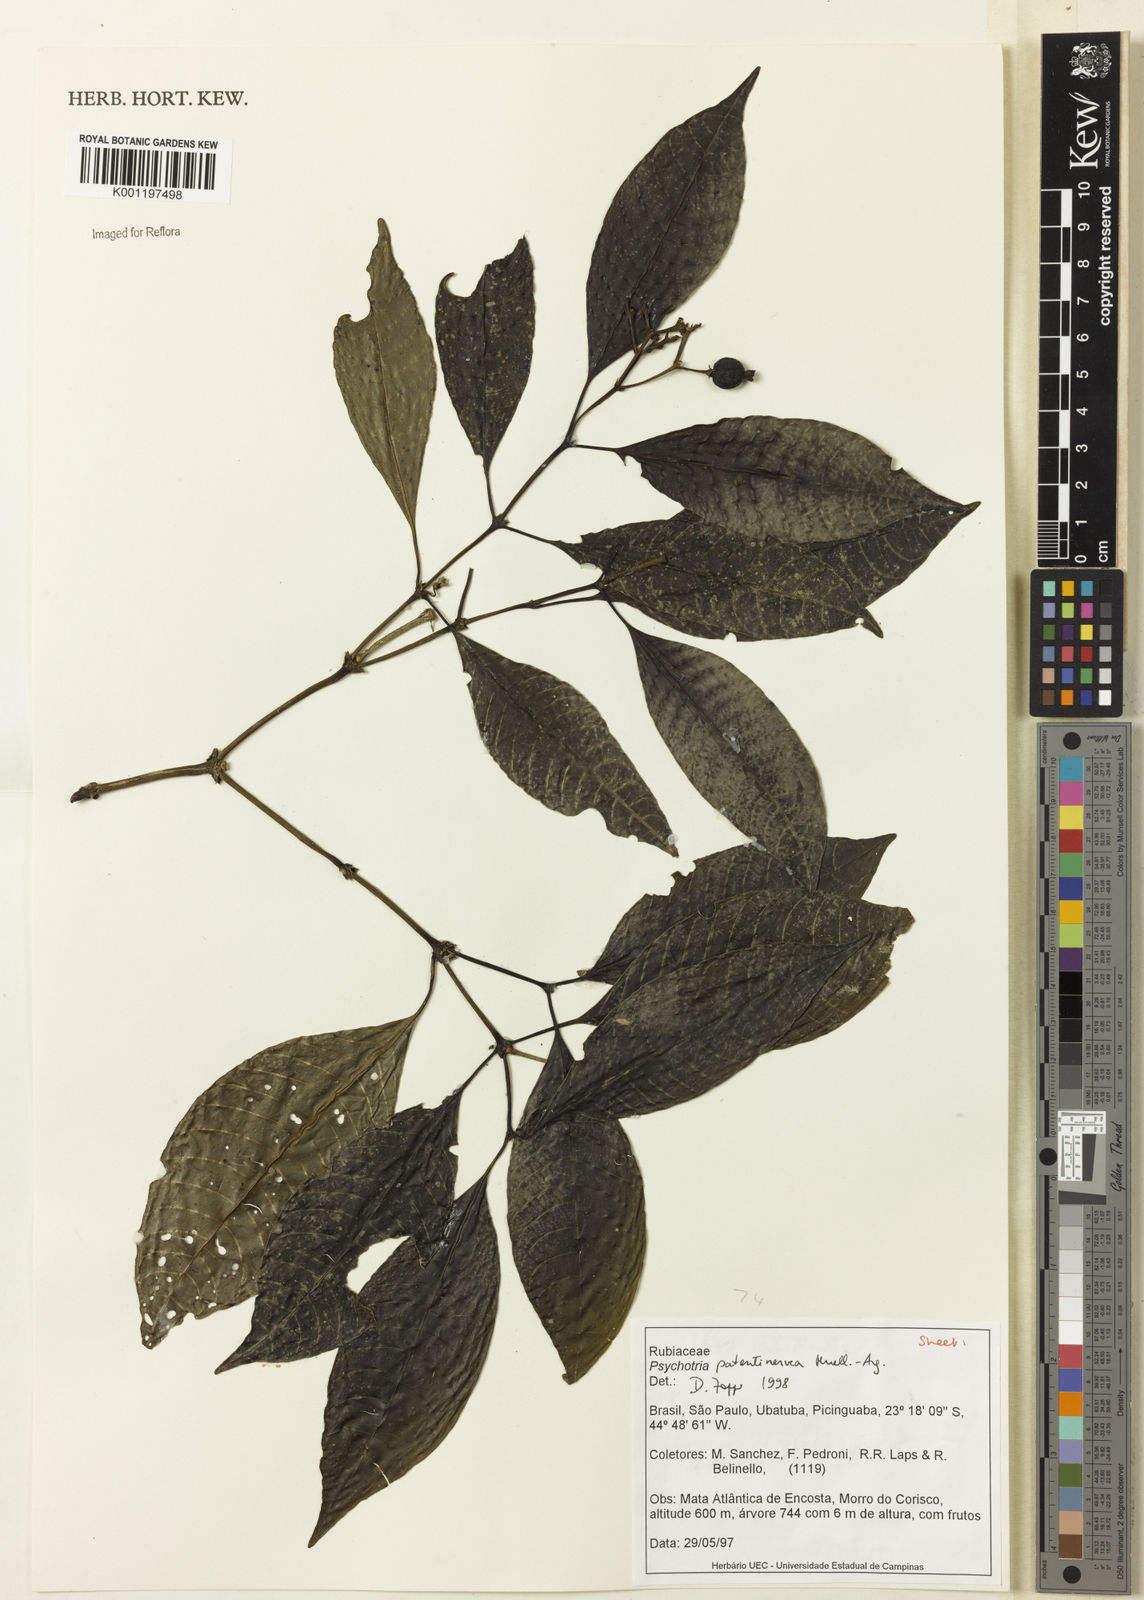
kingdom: Plantae
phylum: Tracheophyta
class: Magnoliopsida
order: Gentianales
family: Rubiaceae
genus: Psychotria
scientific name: Psychotria
